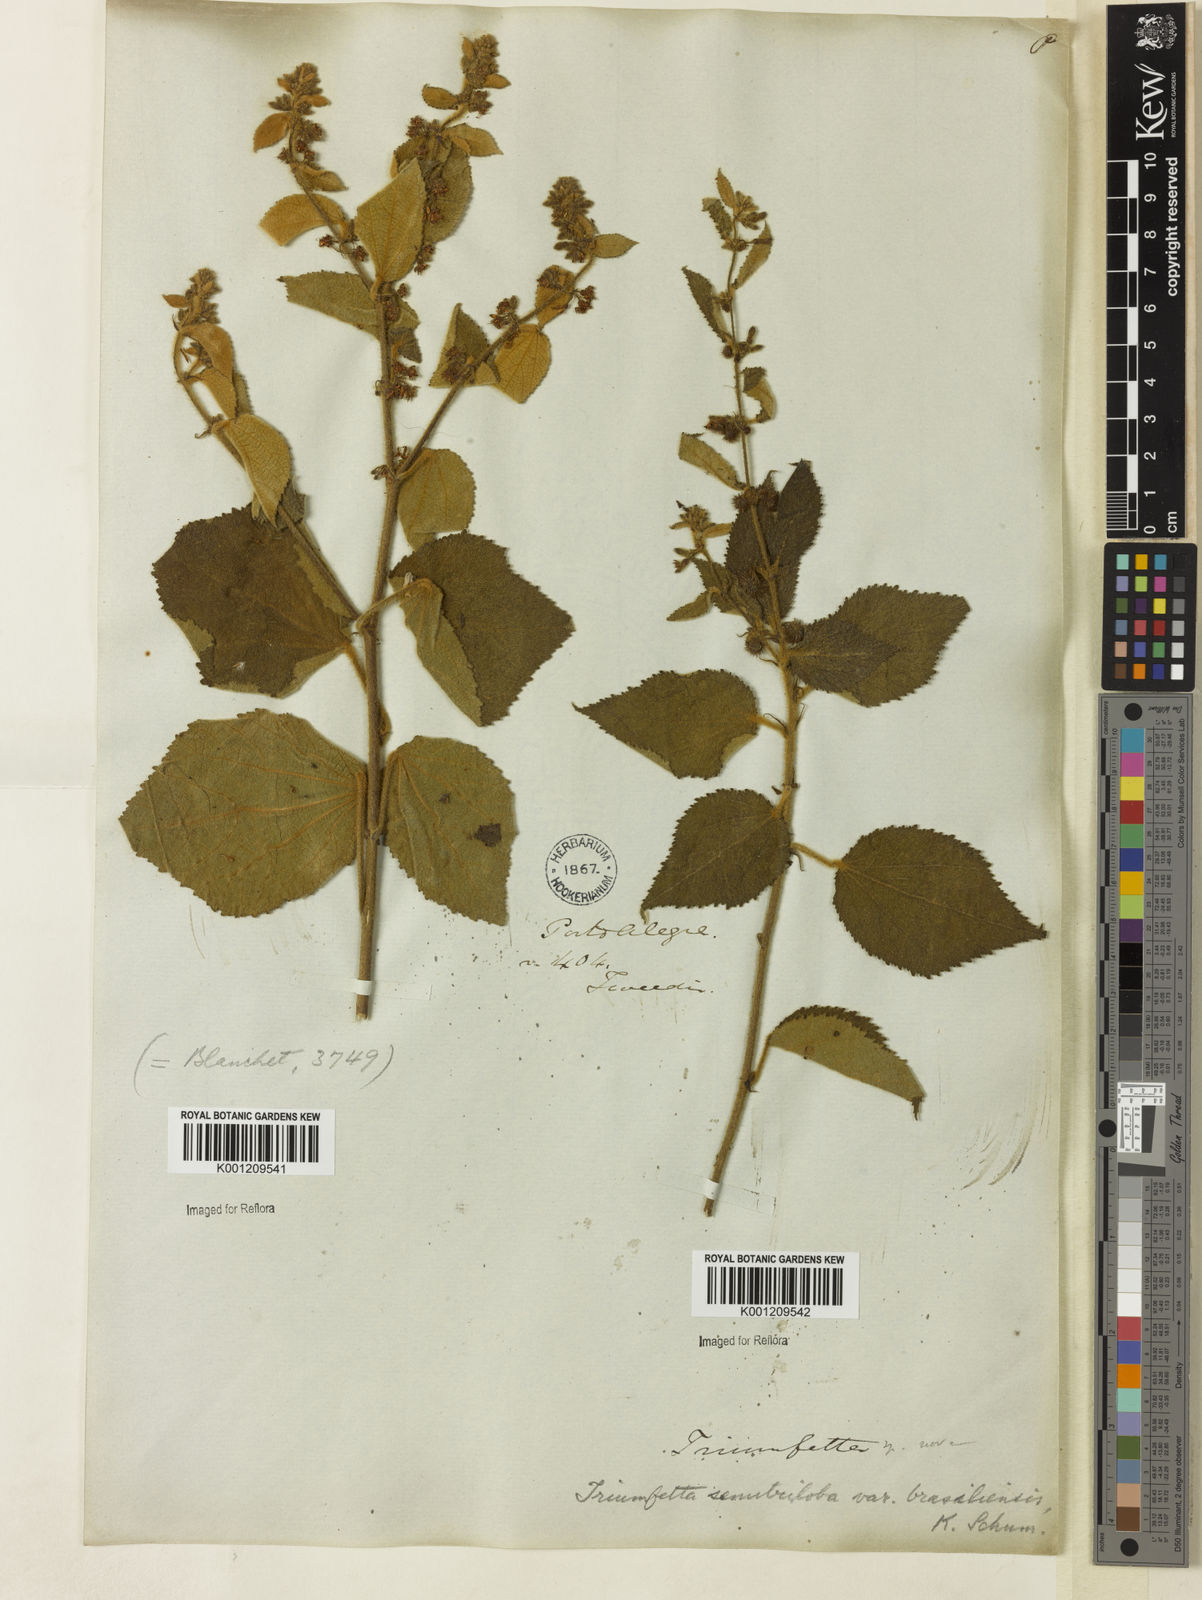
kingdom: Plantae
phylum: Tracheophyta
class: Magnoliopsida
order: Malvales
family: Malvaceae
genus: Triumfetta
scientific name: Triumfetta semitriloba
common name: Sacramento burbark
